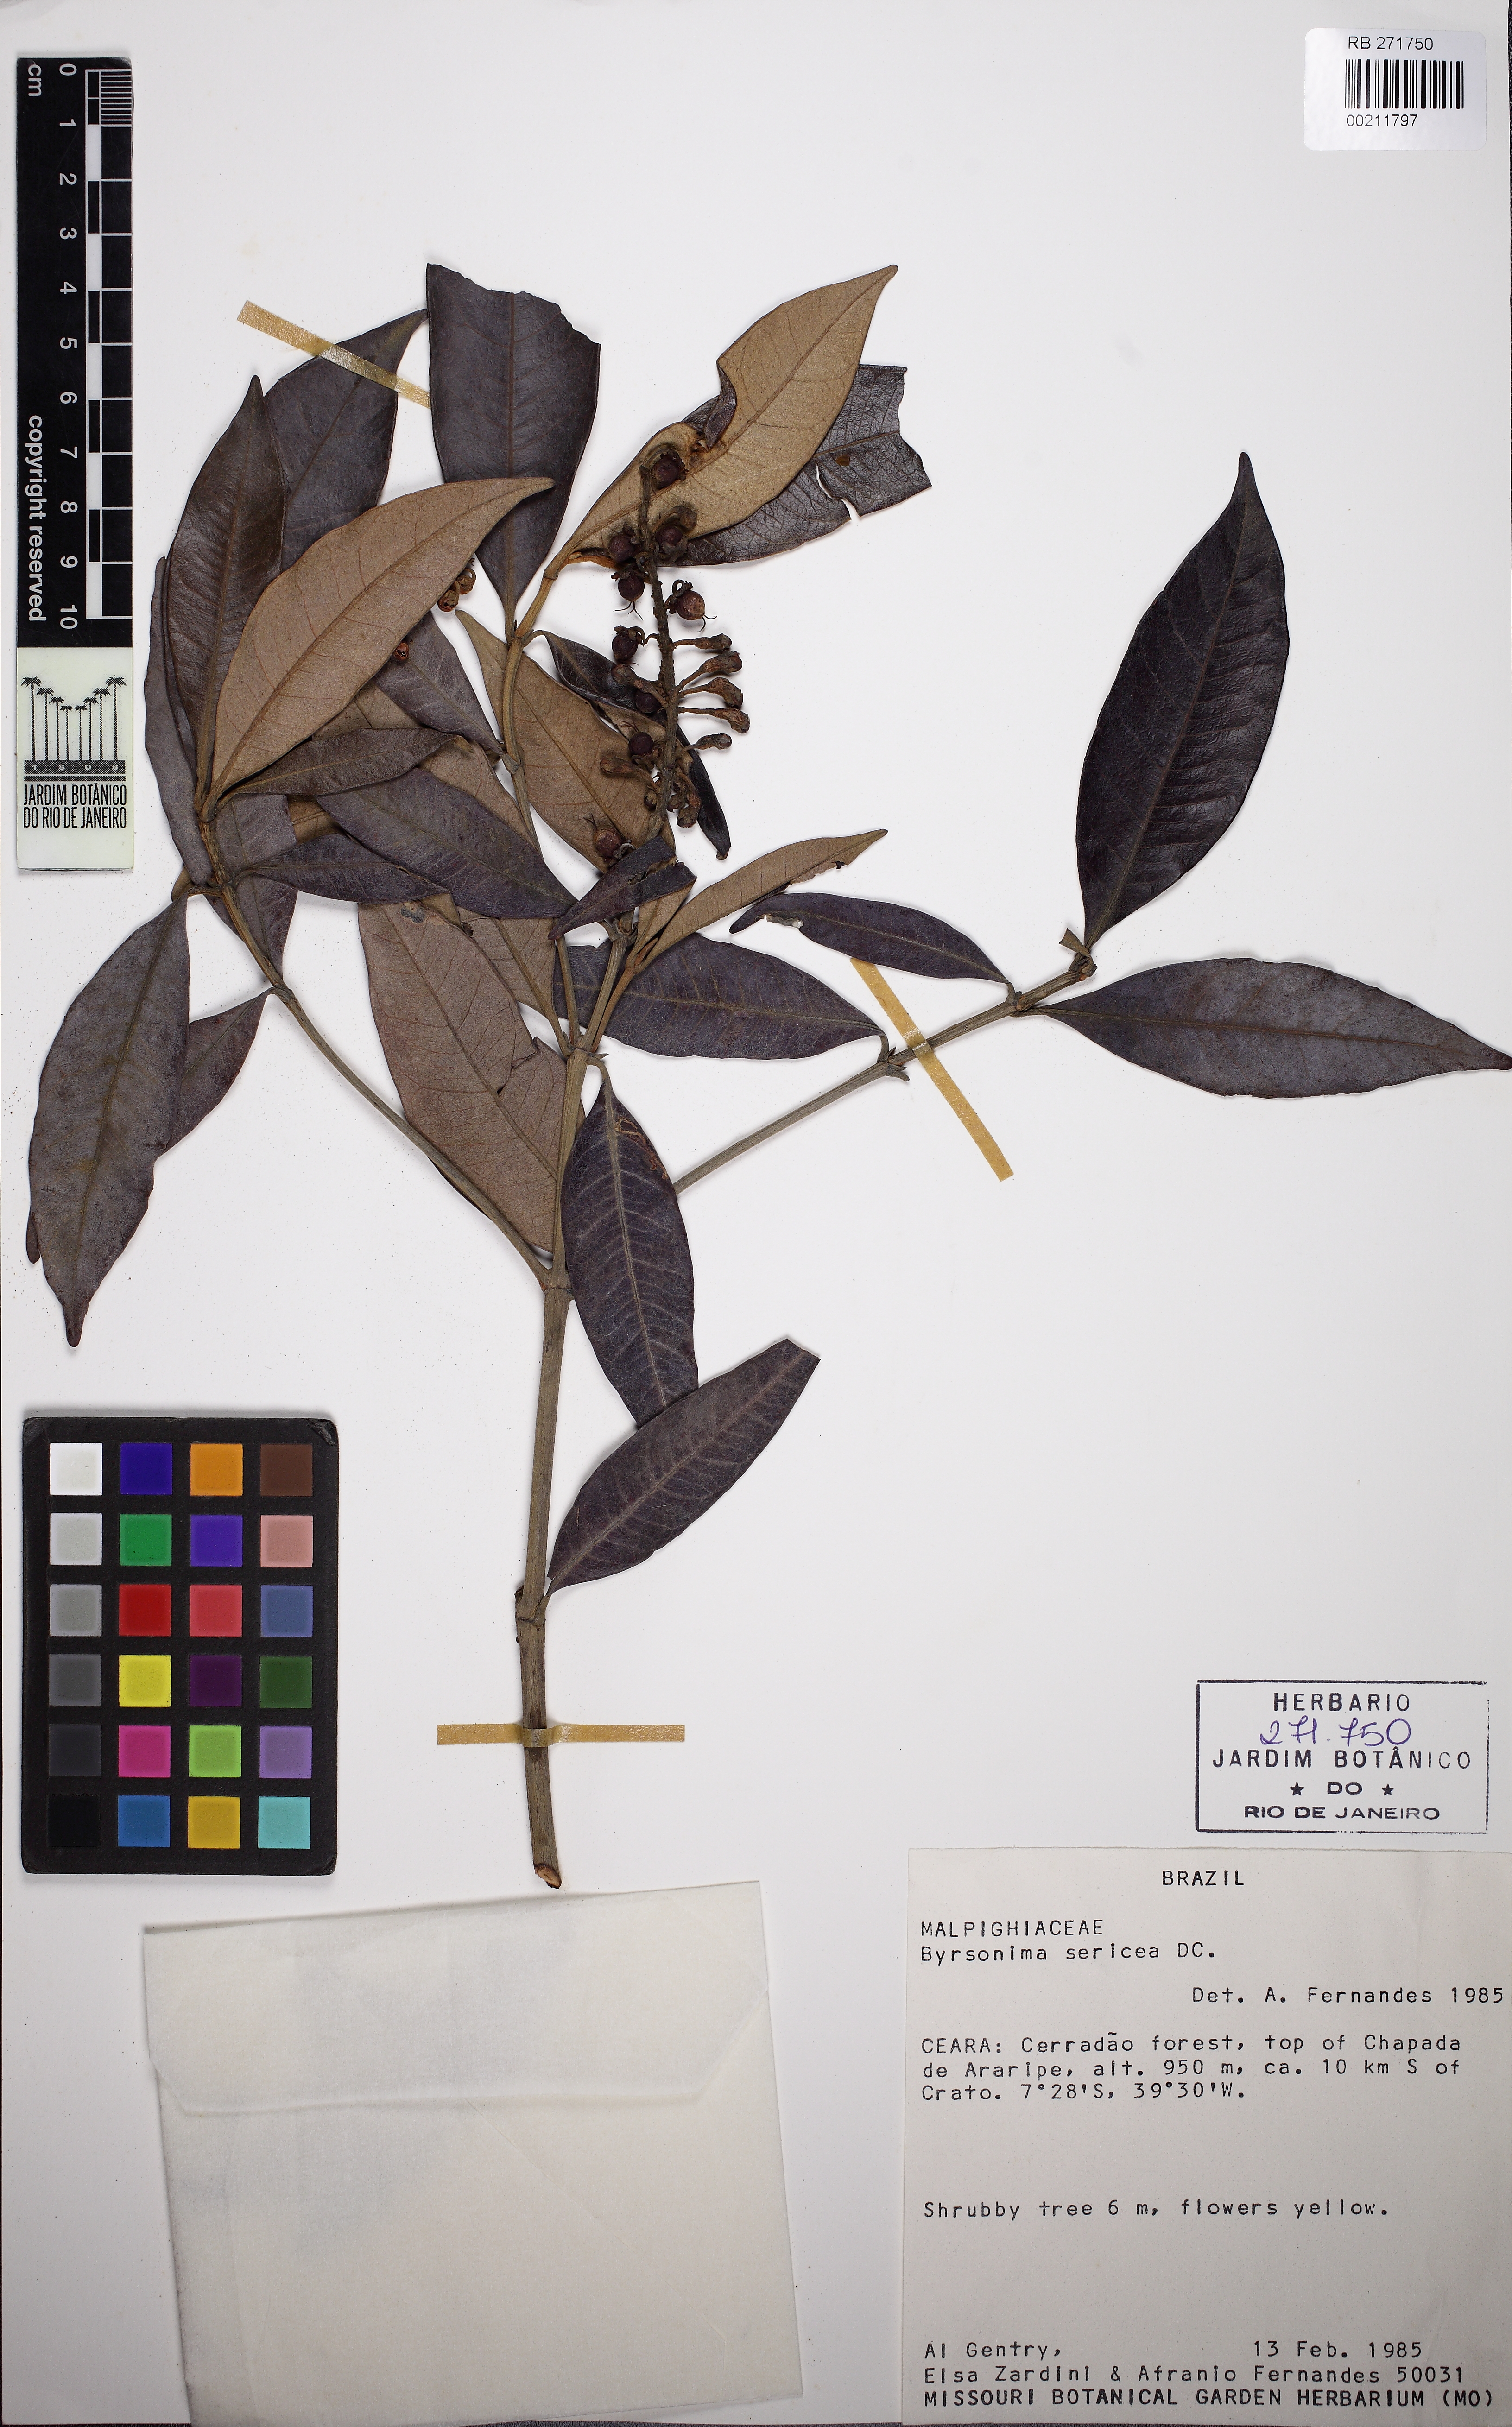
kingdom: Plantae
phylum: Tracheophyta
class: Magnoliopsida
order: Malpighiales
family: Malpighiaceae
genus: Byrsonima
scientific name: Byrsonima sericea
